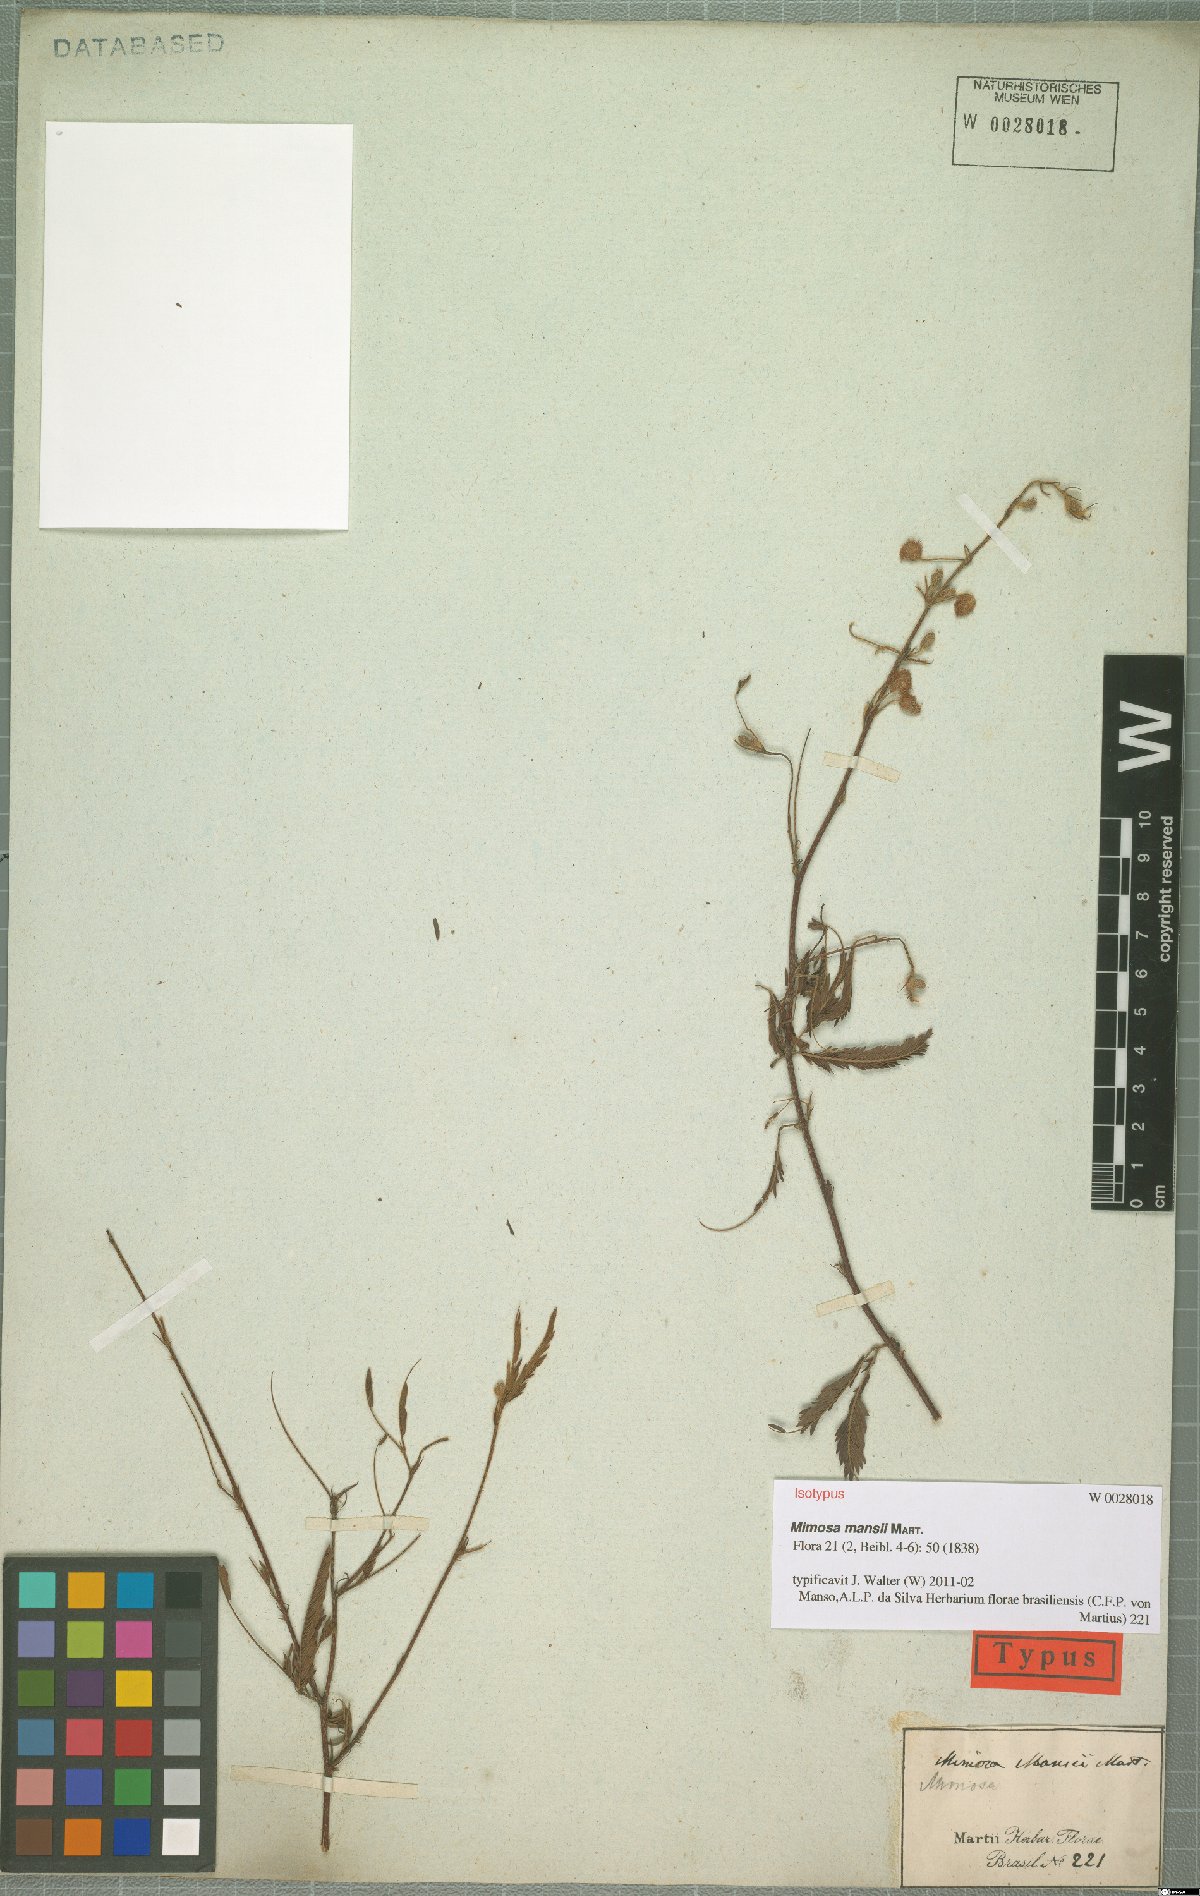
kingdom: Plantae
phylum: Tracheophyta
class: Magnoliopsida
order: Fabales
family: Fabaceae
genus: Mimosa
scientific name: Mimosa xanthocentra
